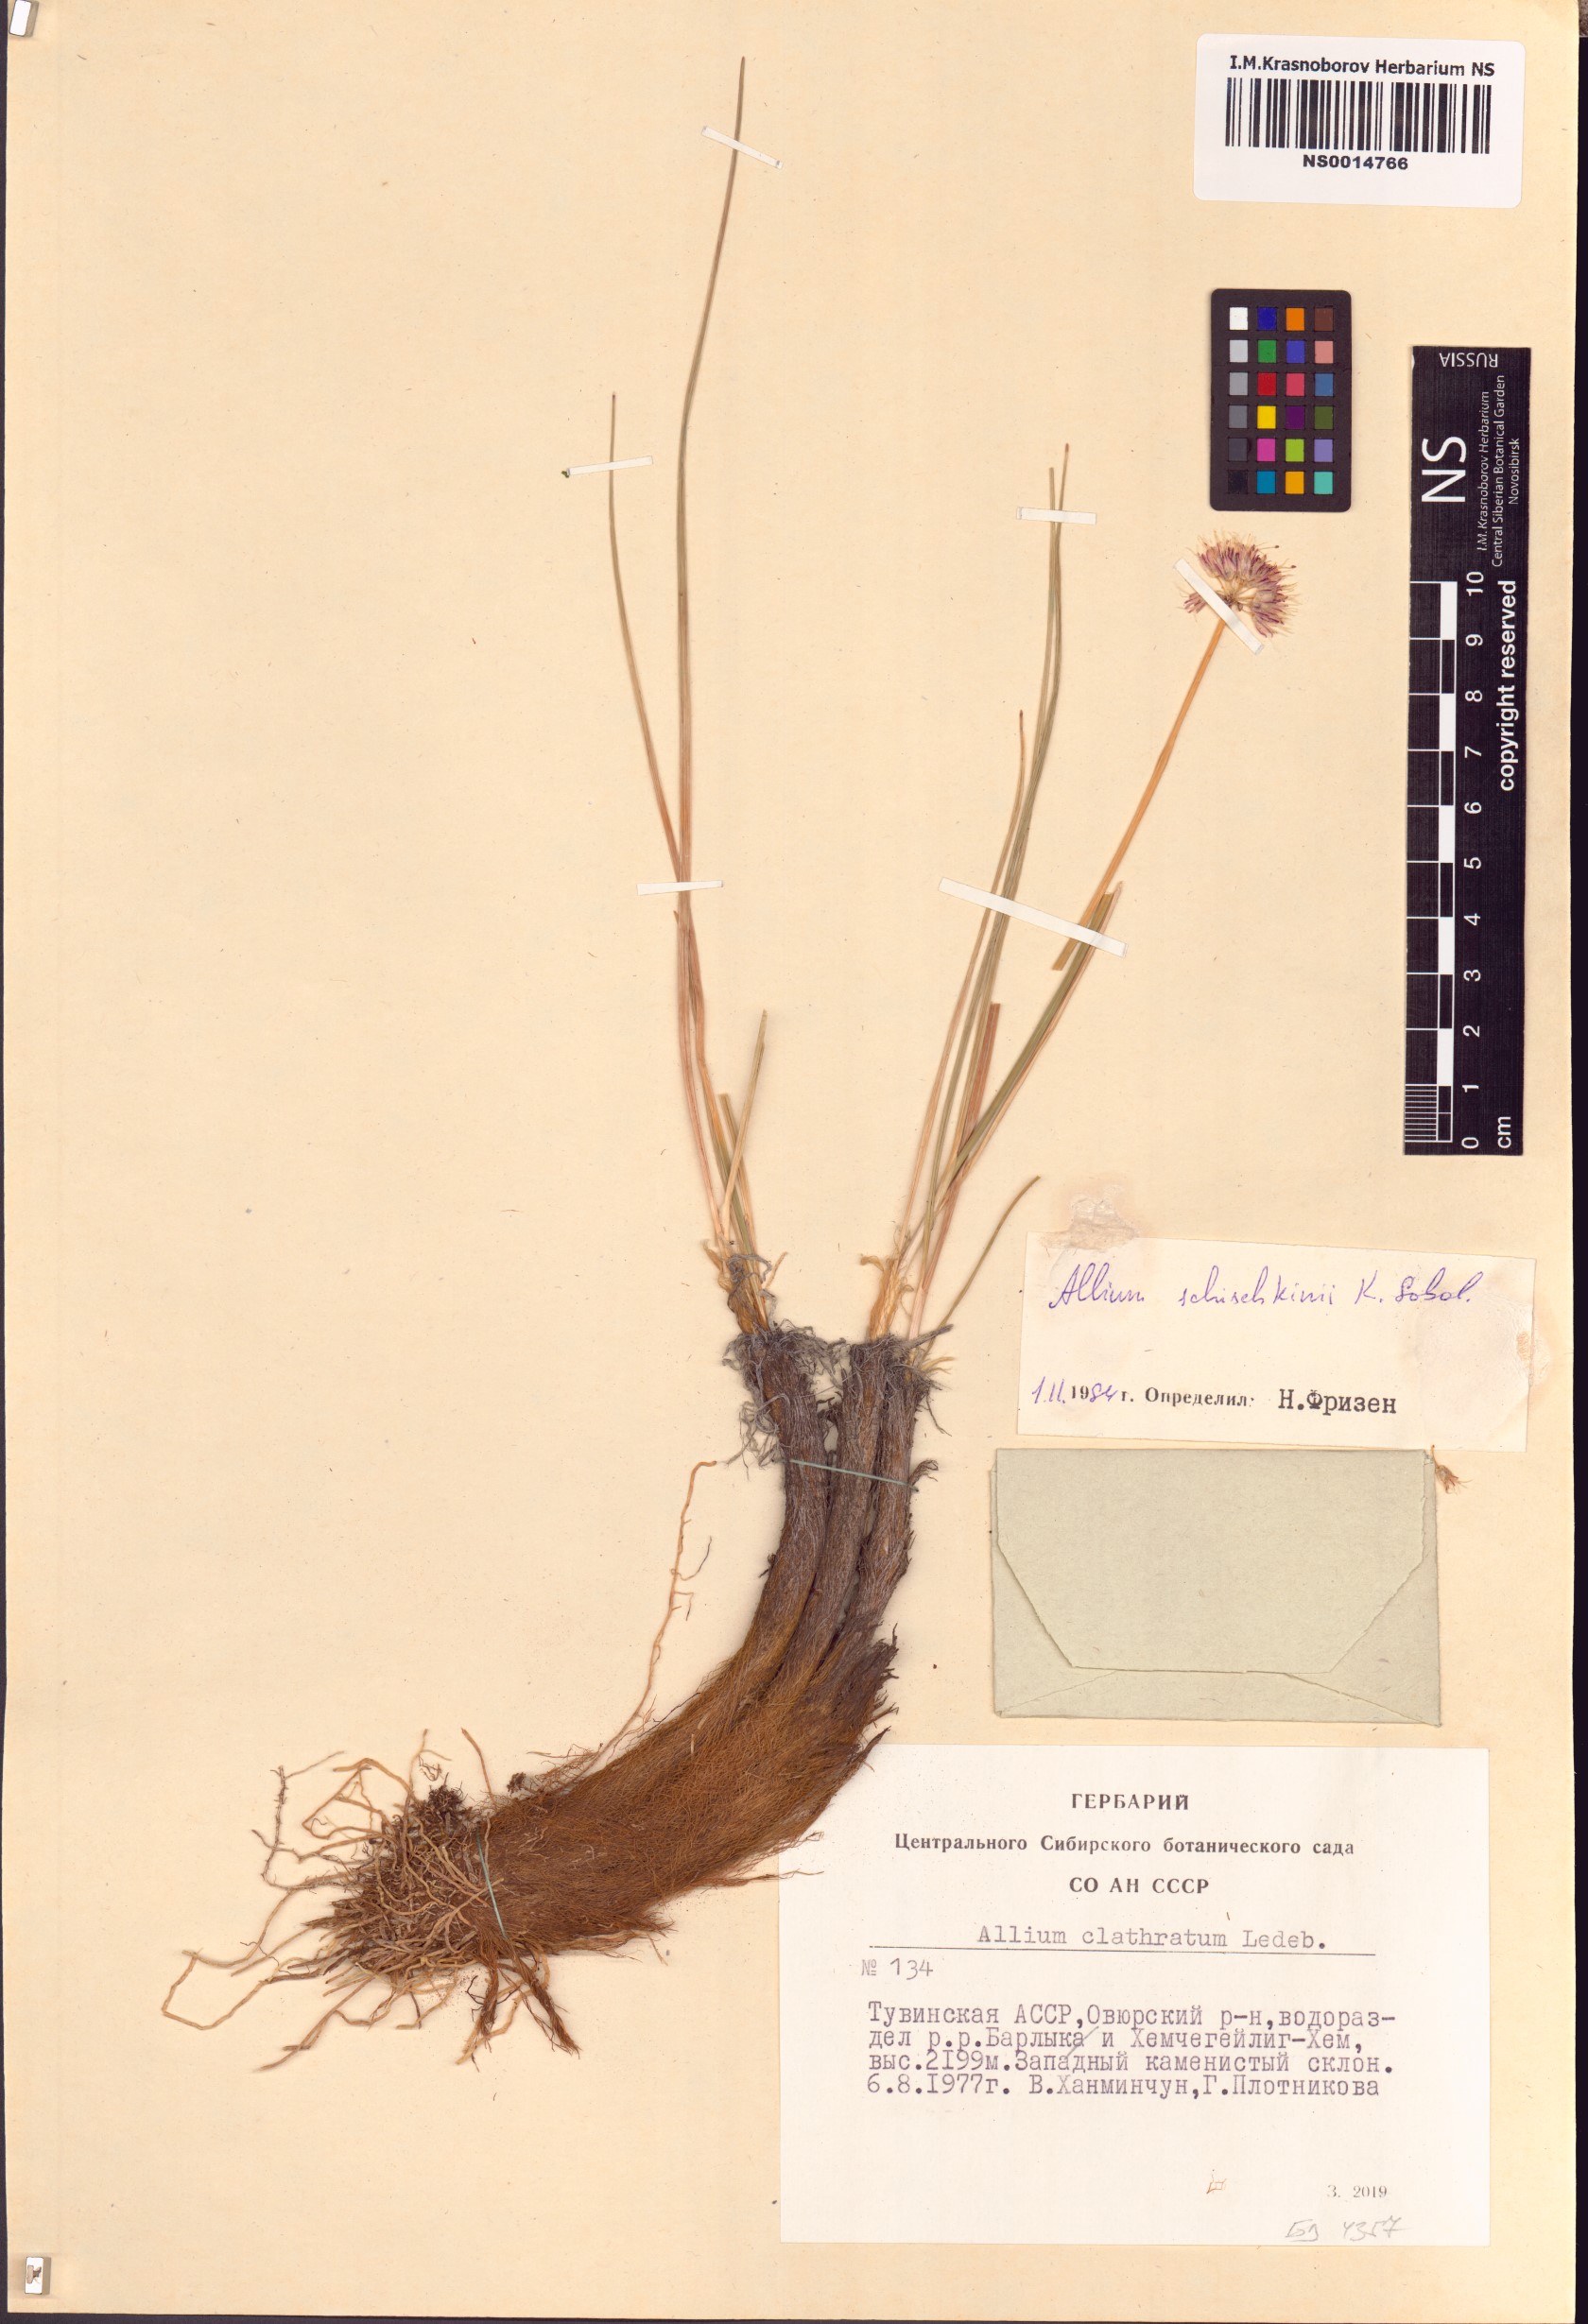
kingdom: Plantae
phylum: Tracheophyta
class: Liliopsida
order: Asparagales
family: Amaryllidaceae
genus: Allium
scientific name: Allium schischkinii
